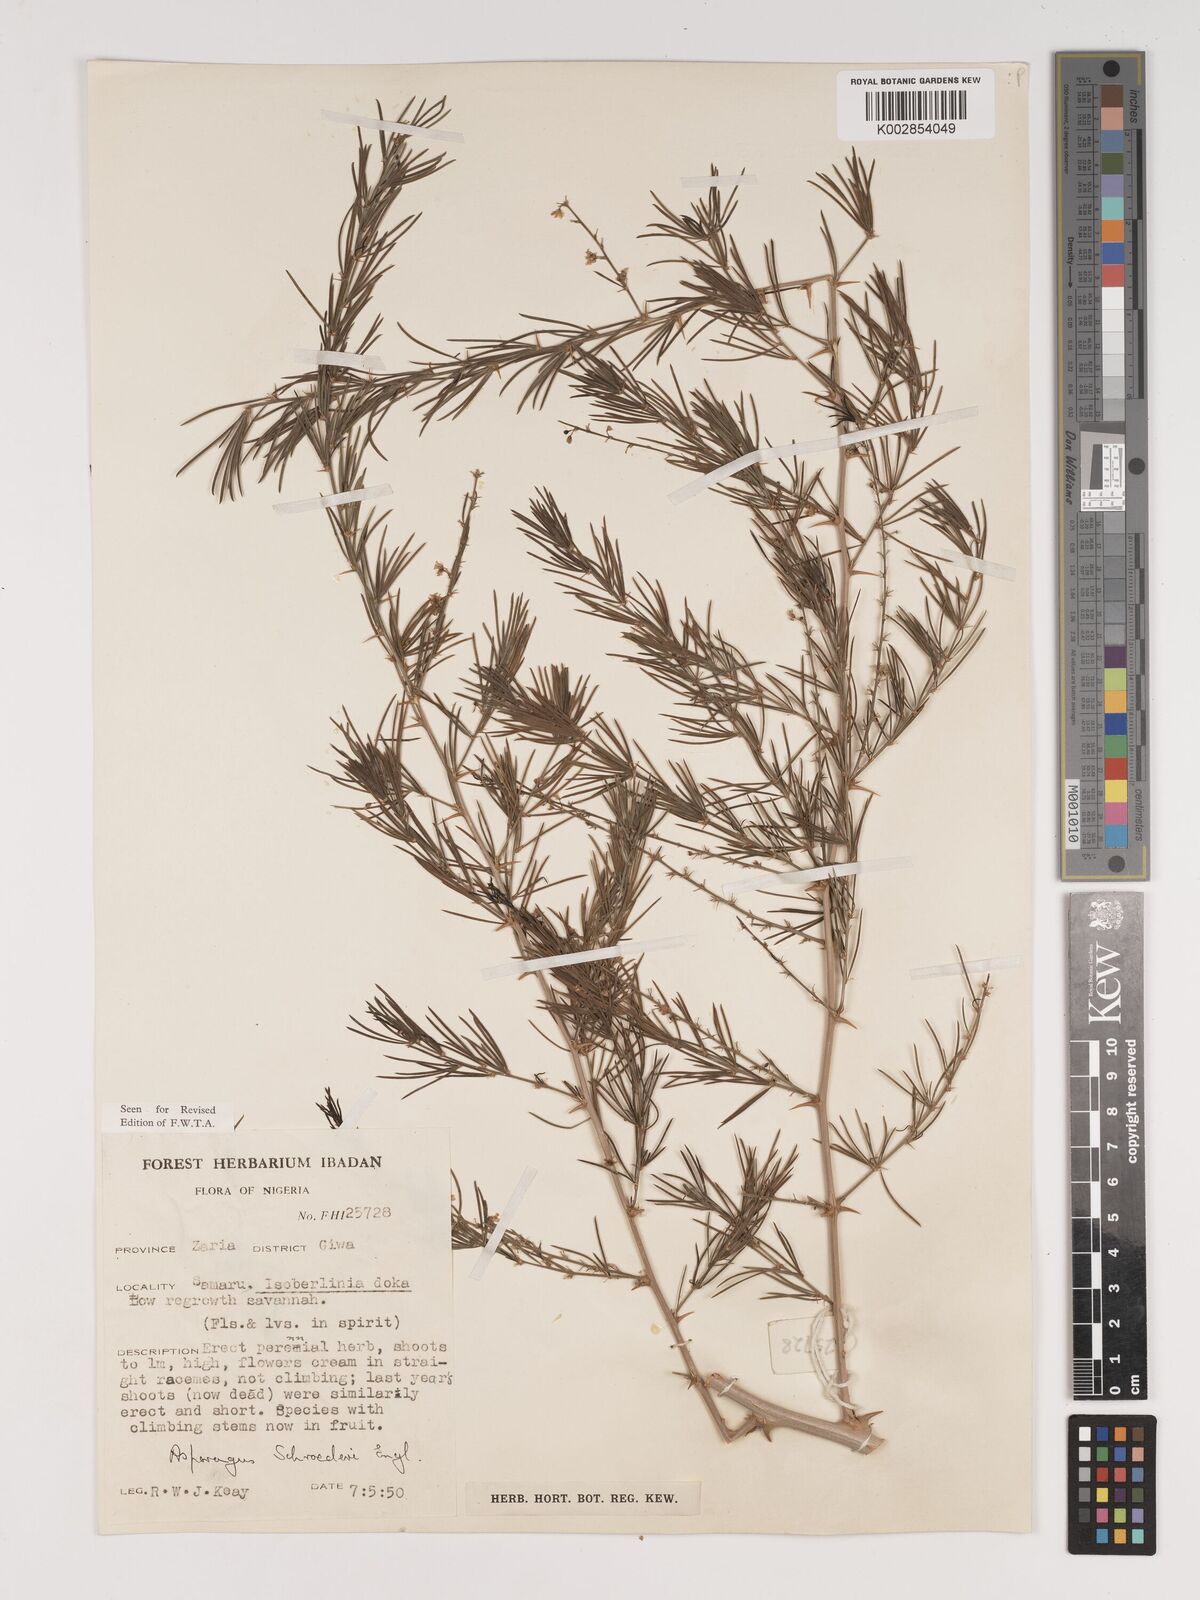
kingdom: Plantae
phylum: Tracheophyta
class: Liliopsida
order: Asparagales
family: Asparagaceae
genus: Asparagus
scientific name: Asparagus schroederi
